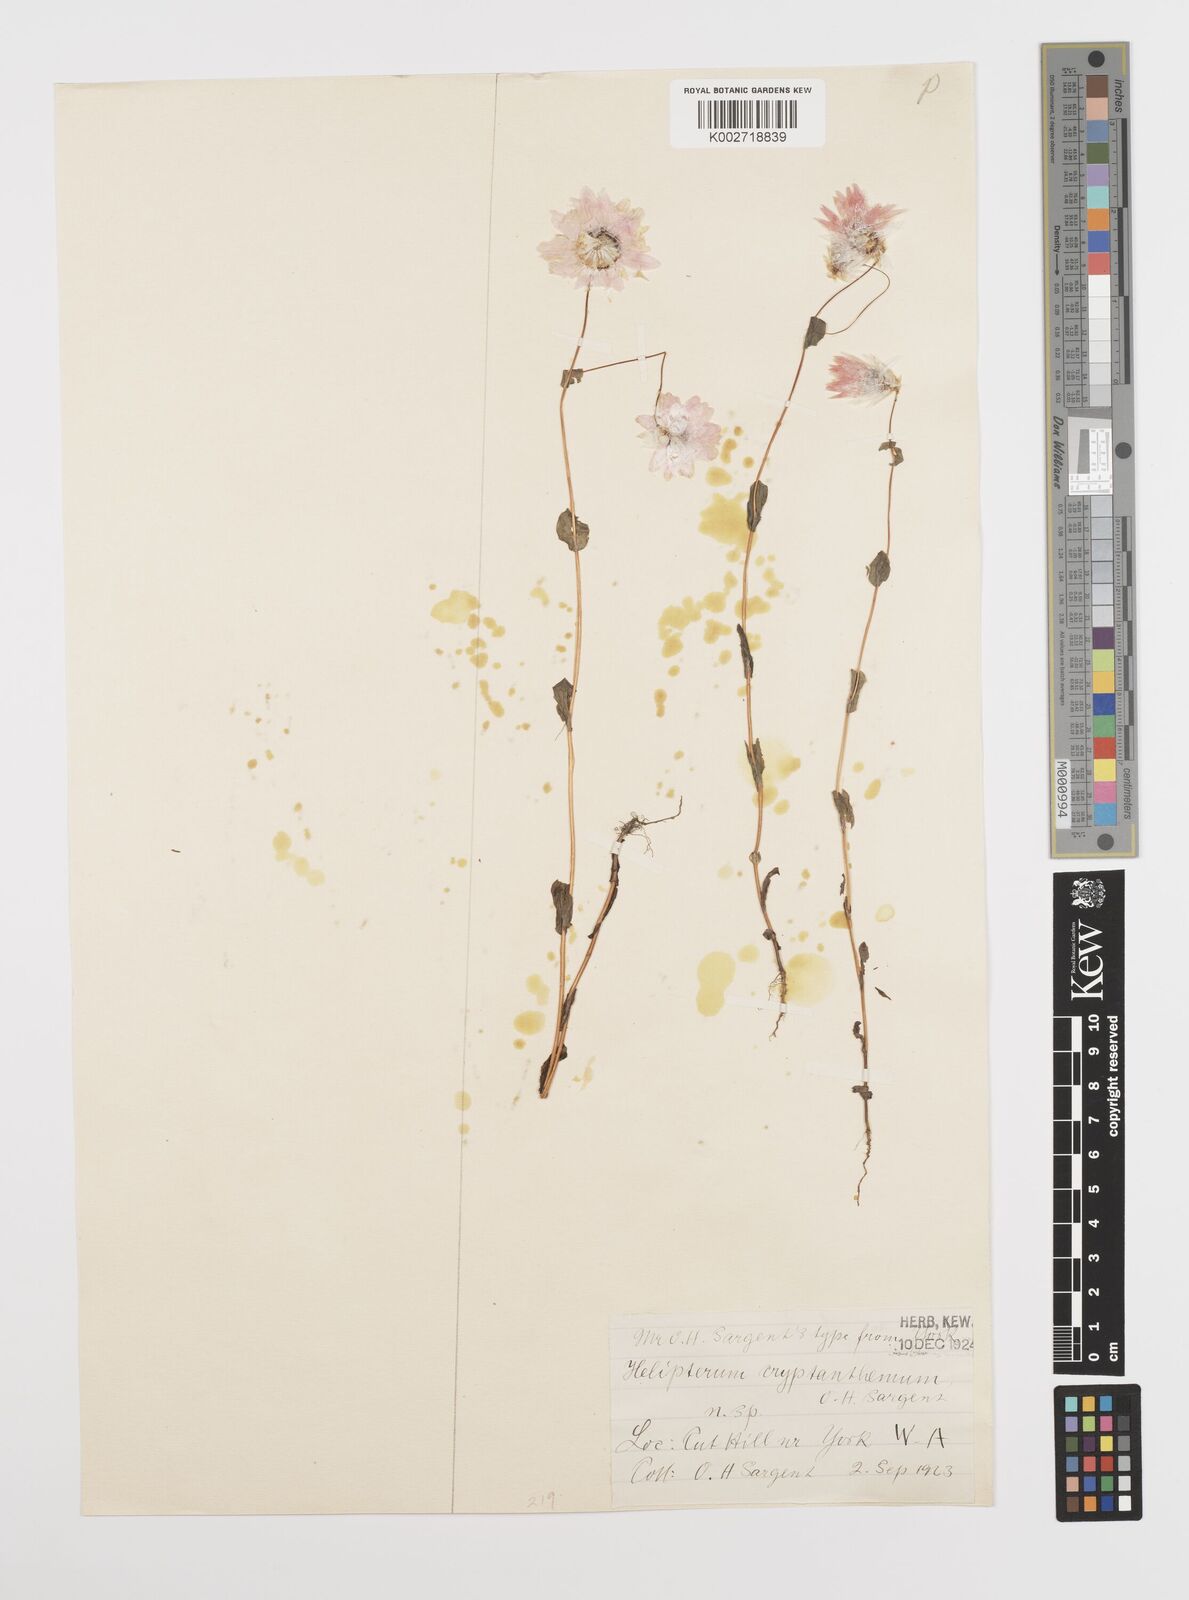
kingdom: Plantae
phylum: Tracheophyta
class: Magnoliopsida
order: Asterales
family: Asteraceae
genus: Rhodanthe
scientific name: Rhodanthe manglesii
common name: Pink sunray
